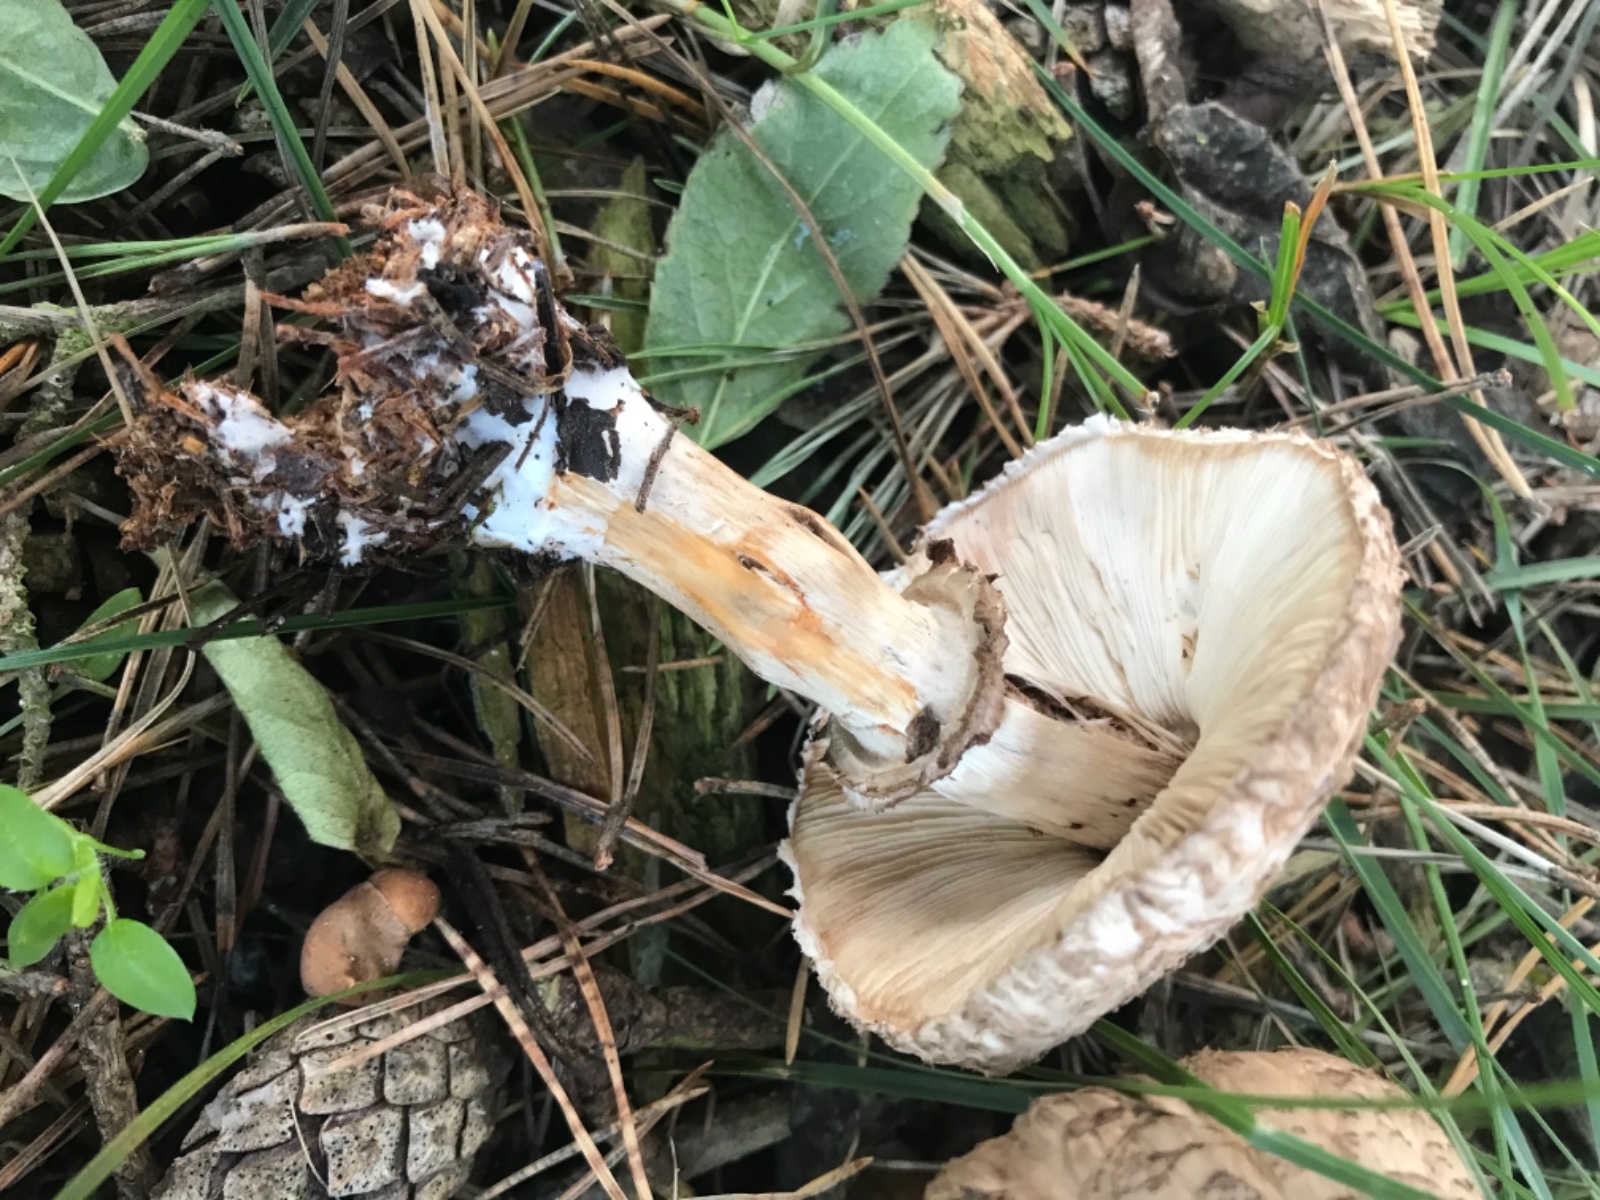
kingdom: Fungi
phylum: Basidiomycota
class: Agaricomycetes
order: Agaricales
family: Agaricaceae
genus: Chlorophyllum
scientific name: Chlorophyllum olivieri
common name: almindelig rabarberhat
